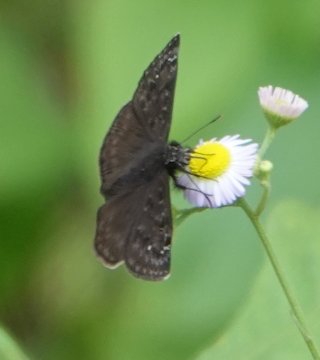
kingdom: Animalia
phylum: Arthropoda
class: Insecta
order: Lepidoptera
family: Hesperiidae
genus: Gesta
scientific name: Gesta
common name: Horace's Duskywing
